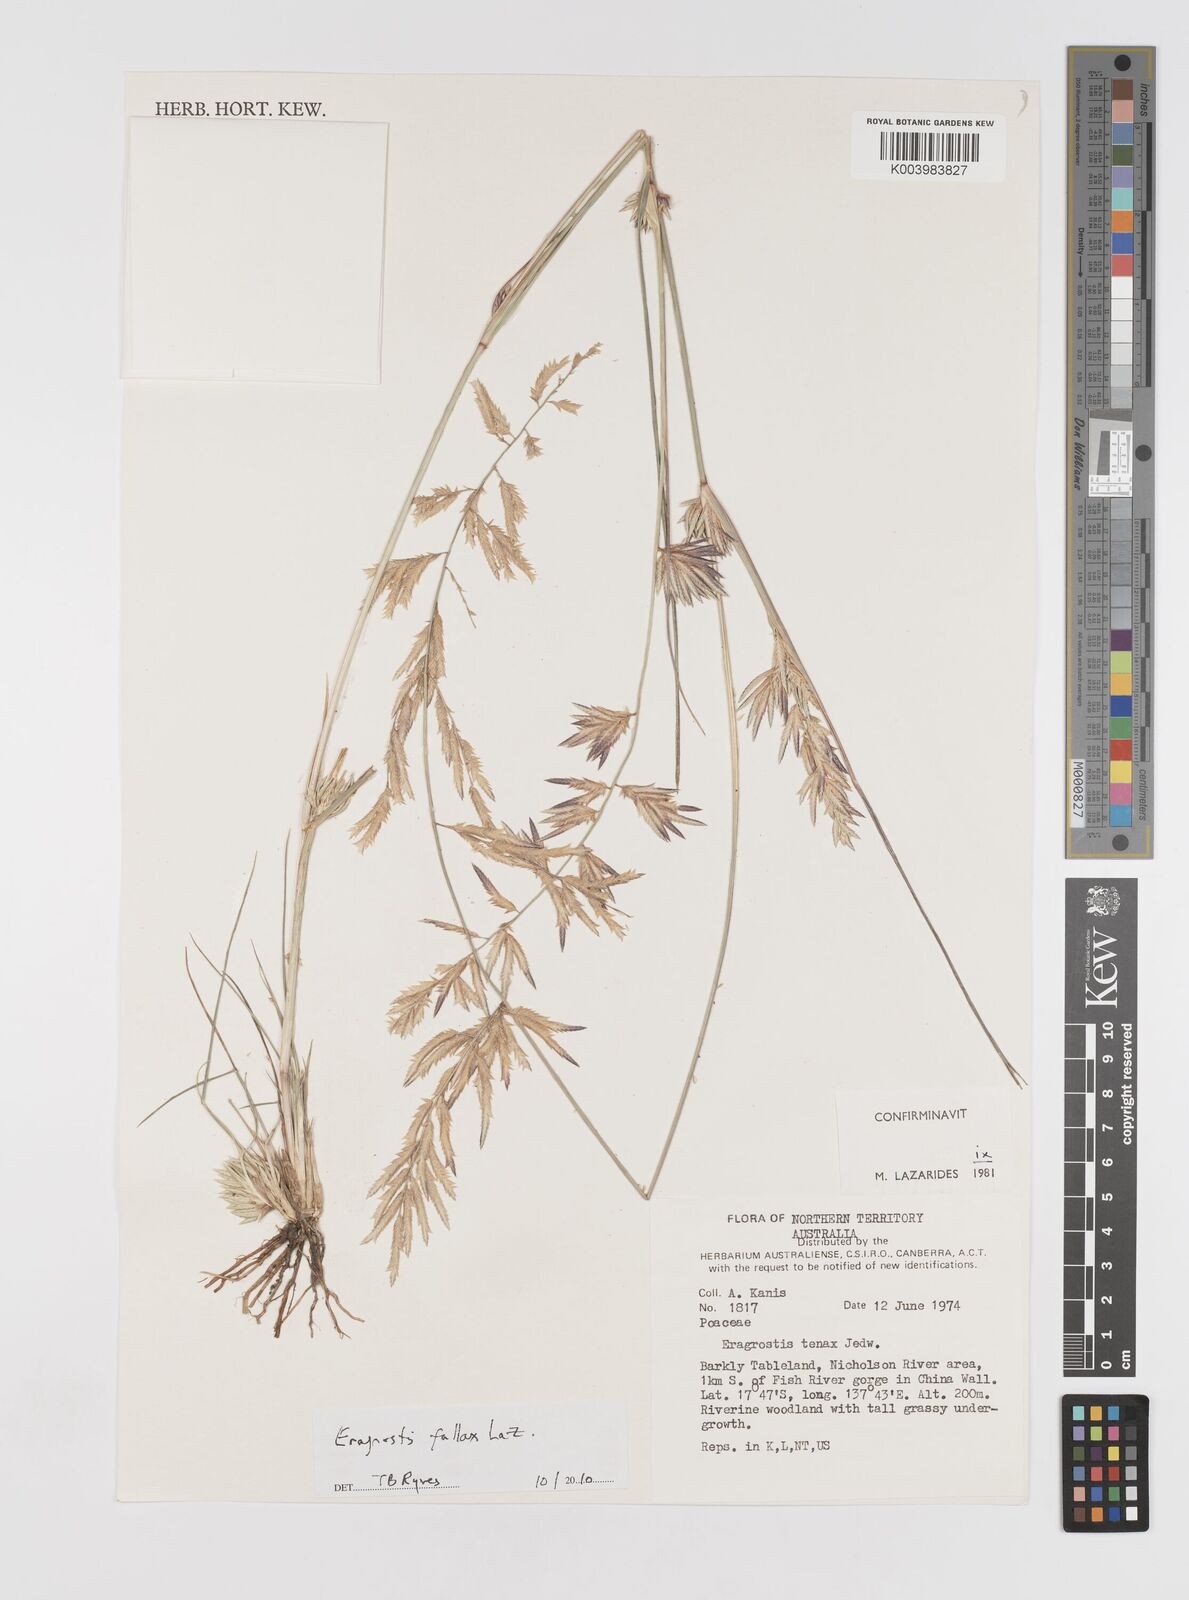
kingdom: Plantae
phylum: Tracheophyta
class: Liliopsida
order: Poales
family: Poaceae
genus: Eragrostis
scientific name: Eragrostis fallax
